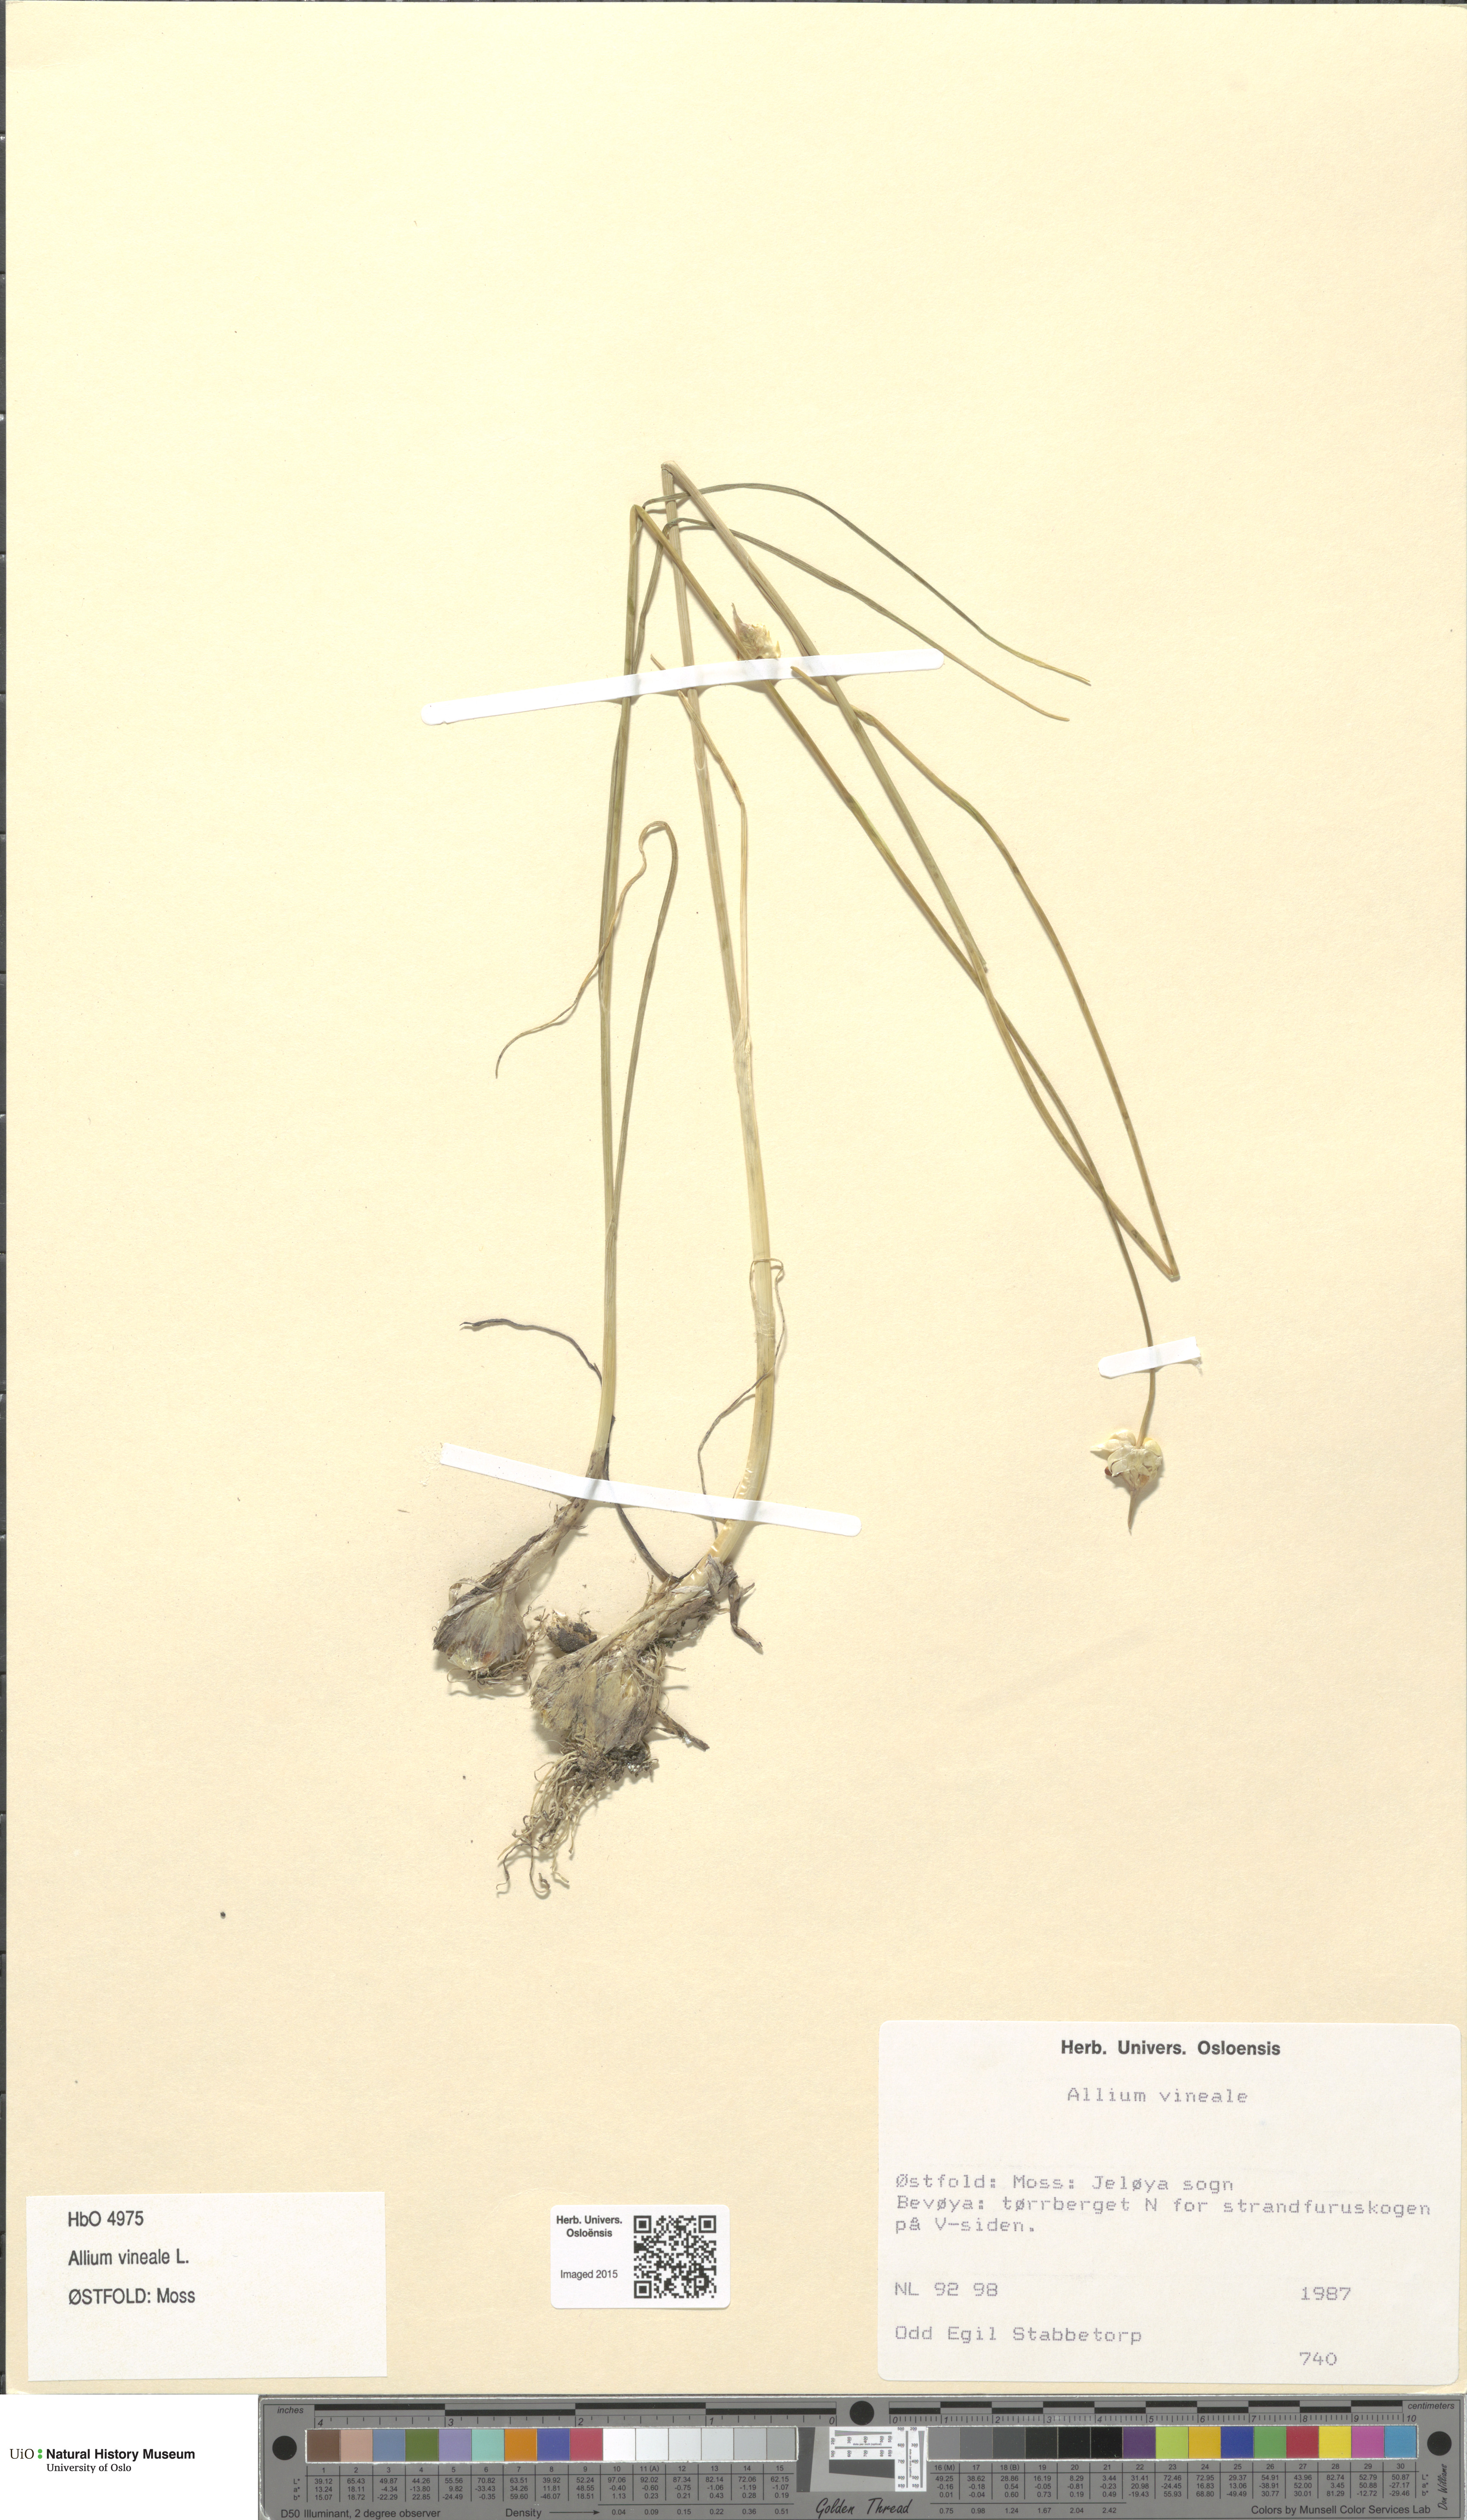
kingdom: Plantae
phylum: Tracheophyta
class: Liliopsida
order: Asparagales
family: Amaryllidaceae
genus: Allium
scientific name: Allium vineale
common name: Crow garlic
